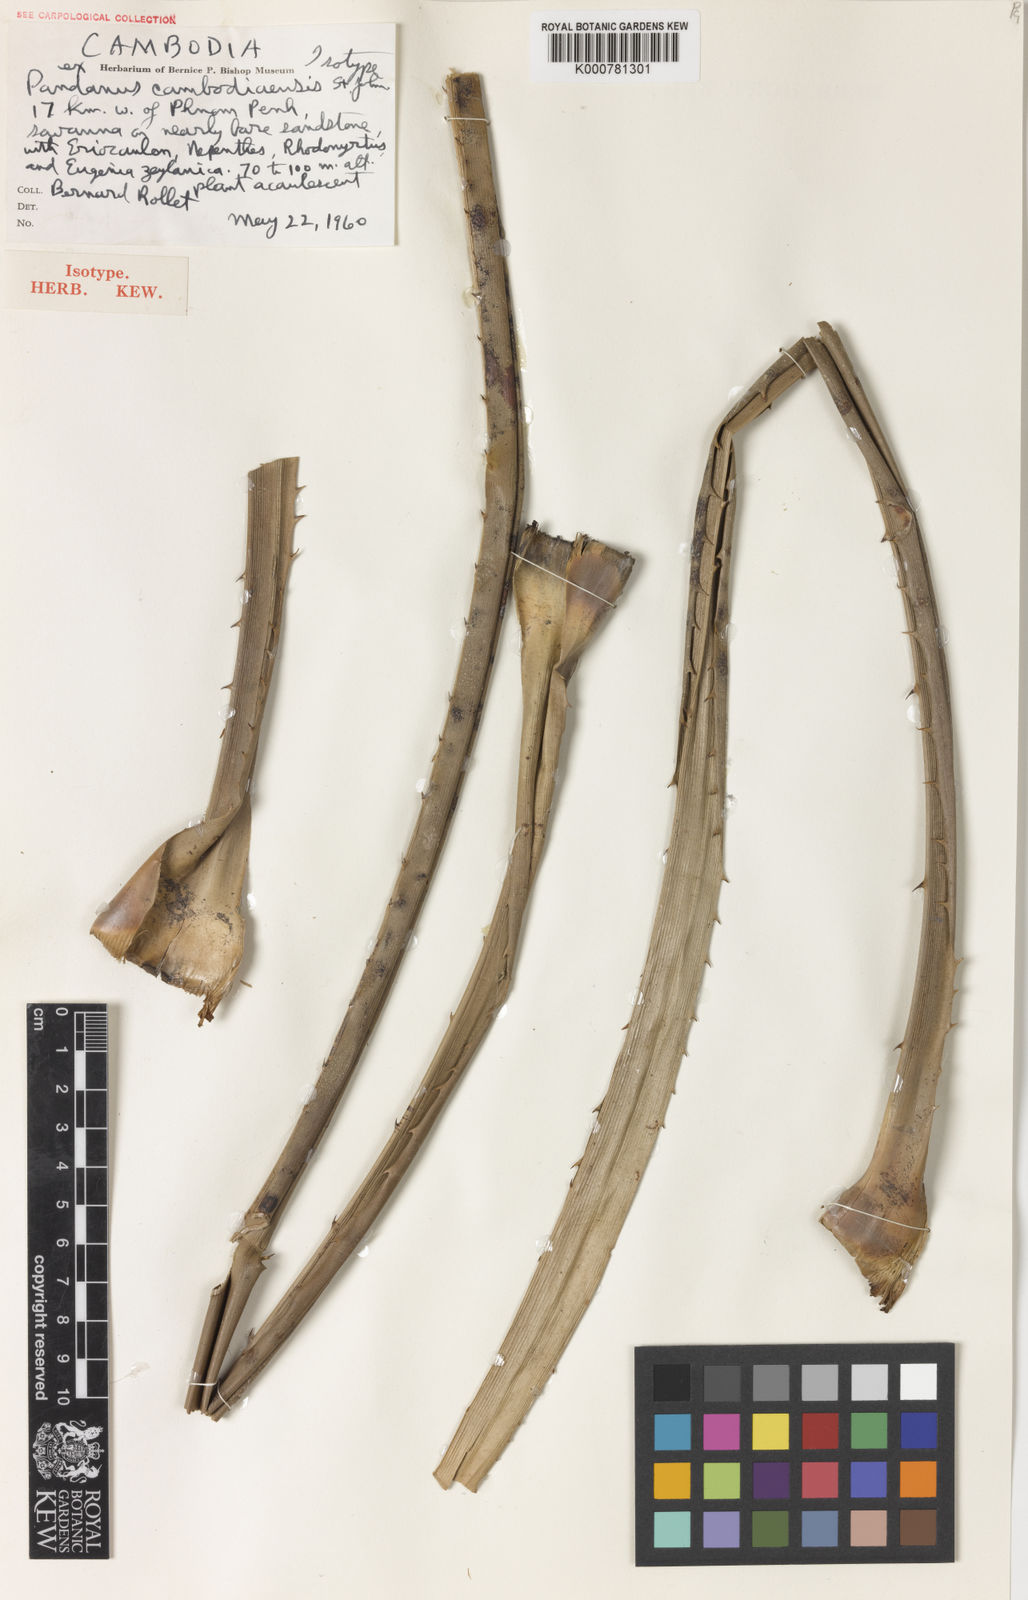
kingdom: Plantae
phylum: Tracheophyta
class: Liliopsida
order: Pandanales
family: Pandanaceae
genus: Pandanus
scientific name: Pandanus
